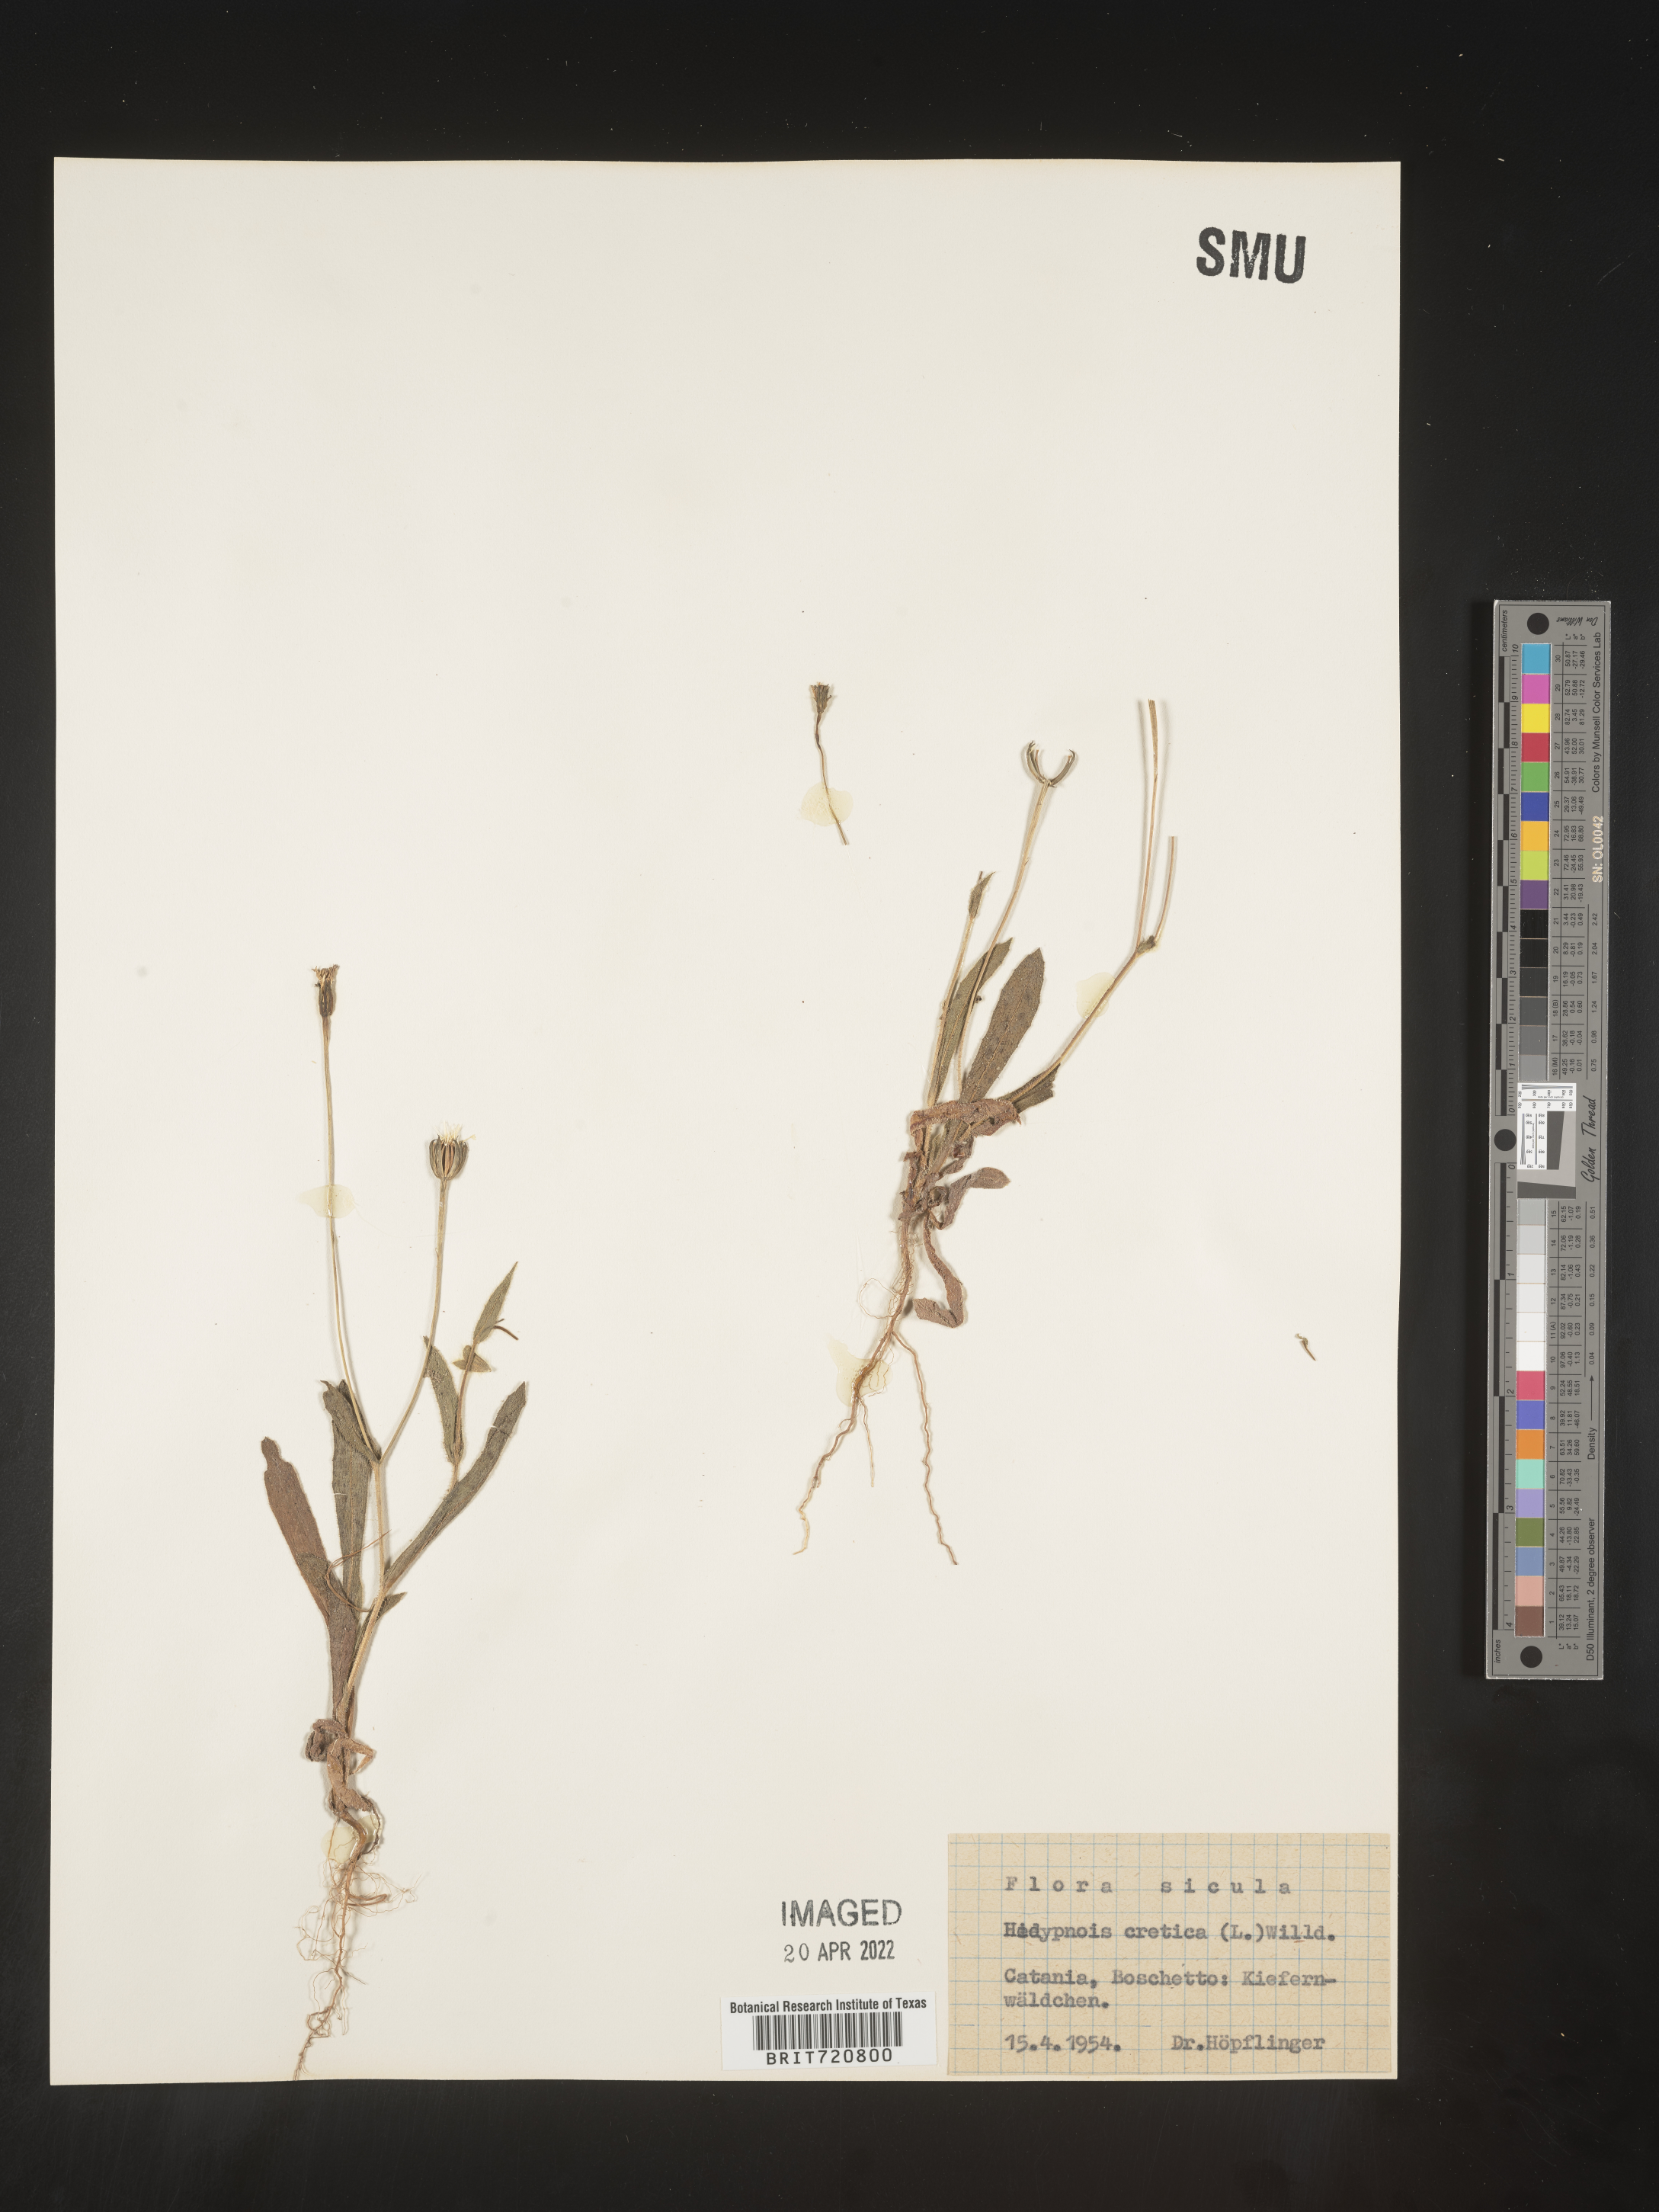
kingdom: Plantae
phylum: Tracheophyta
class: Magnoliopsida
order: Asterales
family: Asteraceae
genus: Hedypnois
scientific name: Hedypnois
